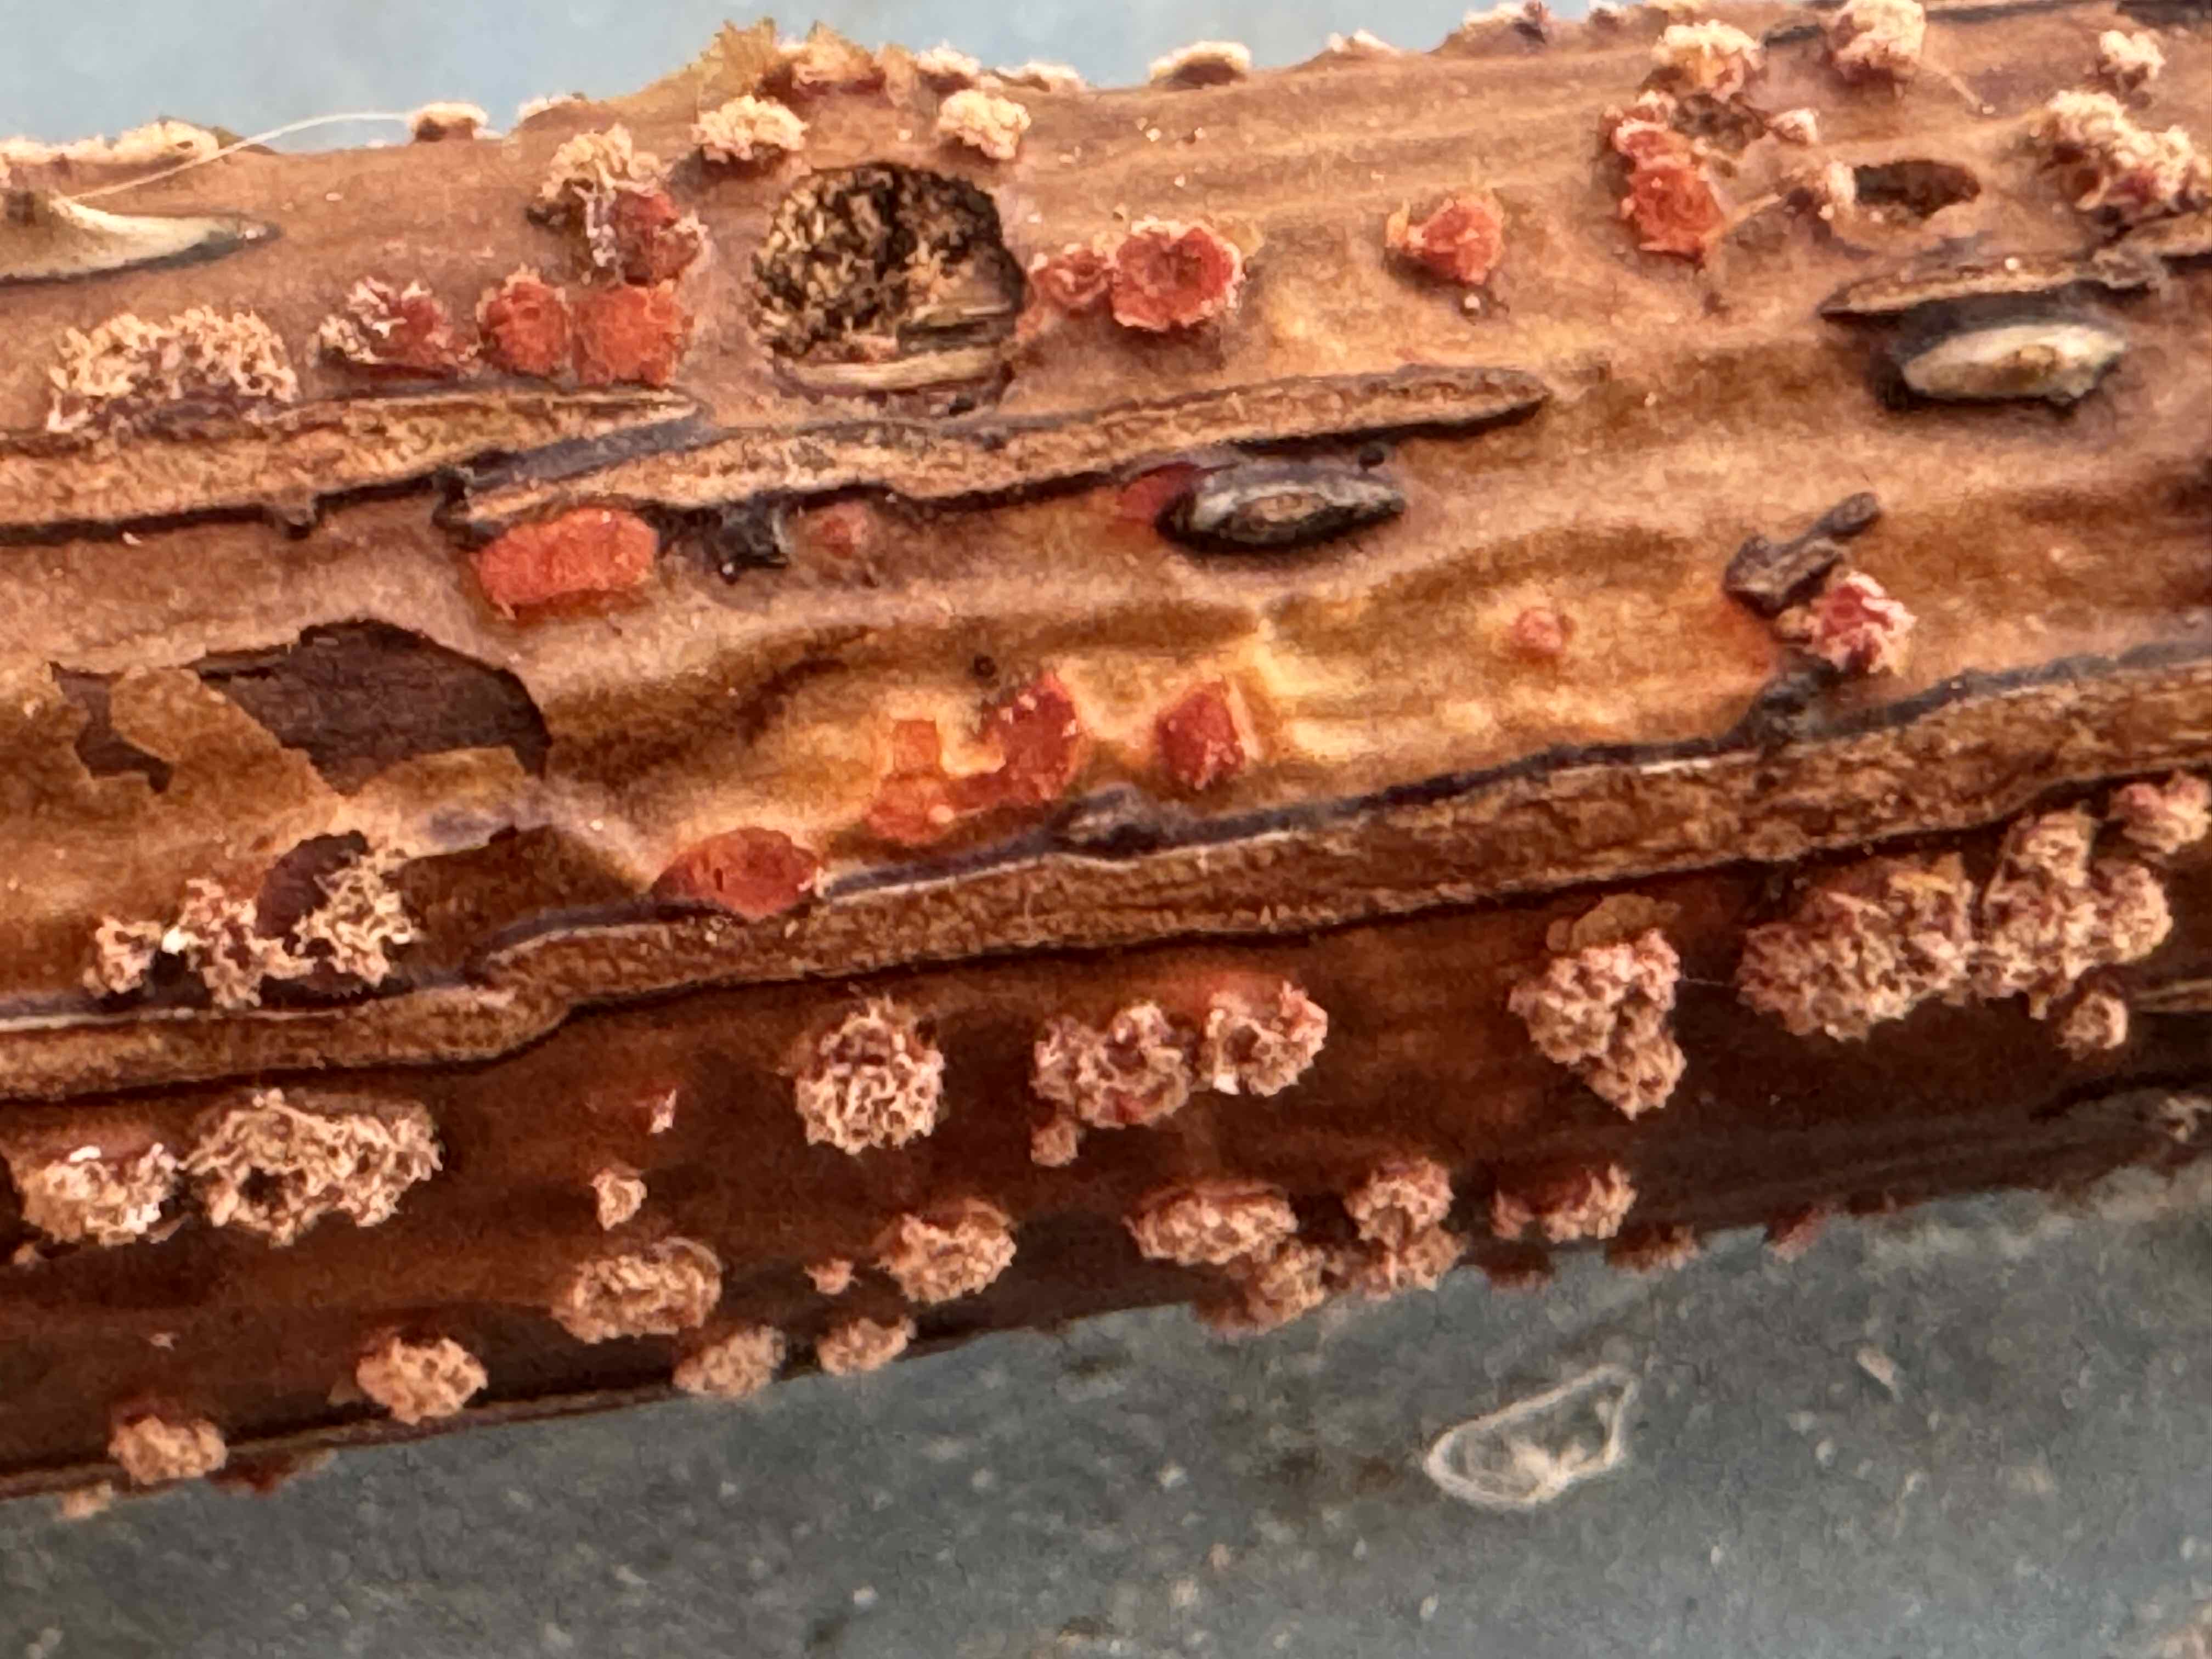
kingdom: Fungi
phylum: Ascomycota
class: Sordariomycetes
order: Hypocreales
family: Nectriaceae
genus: Nectria
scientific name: Nectria cinnabarina
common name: almindelig cinnobersvamp
